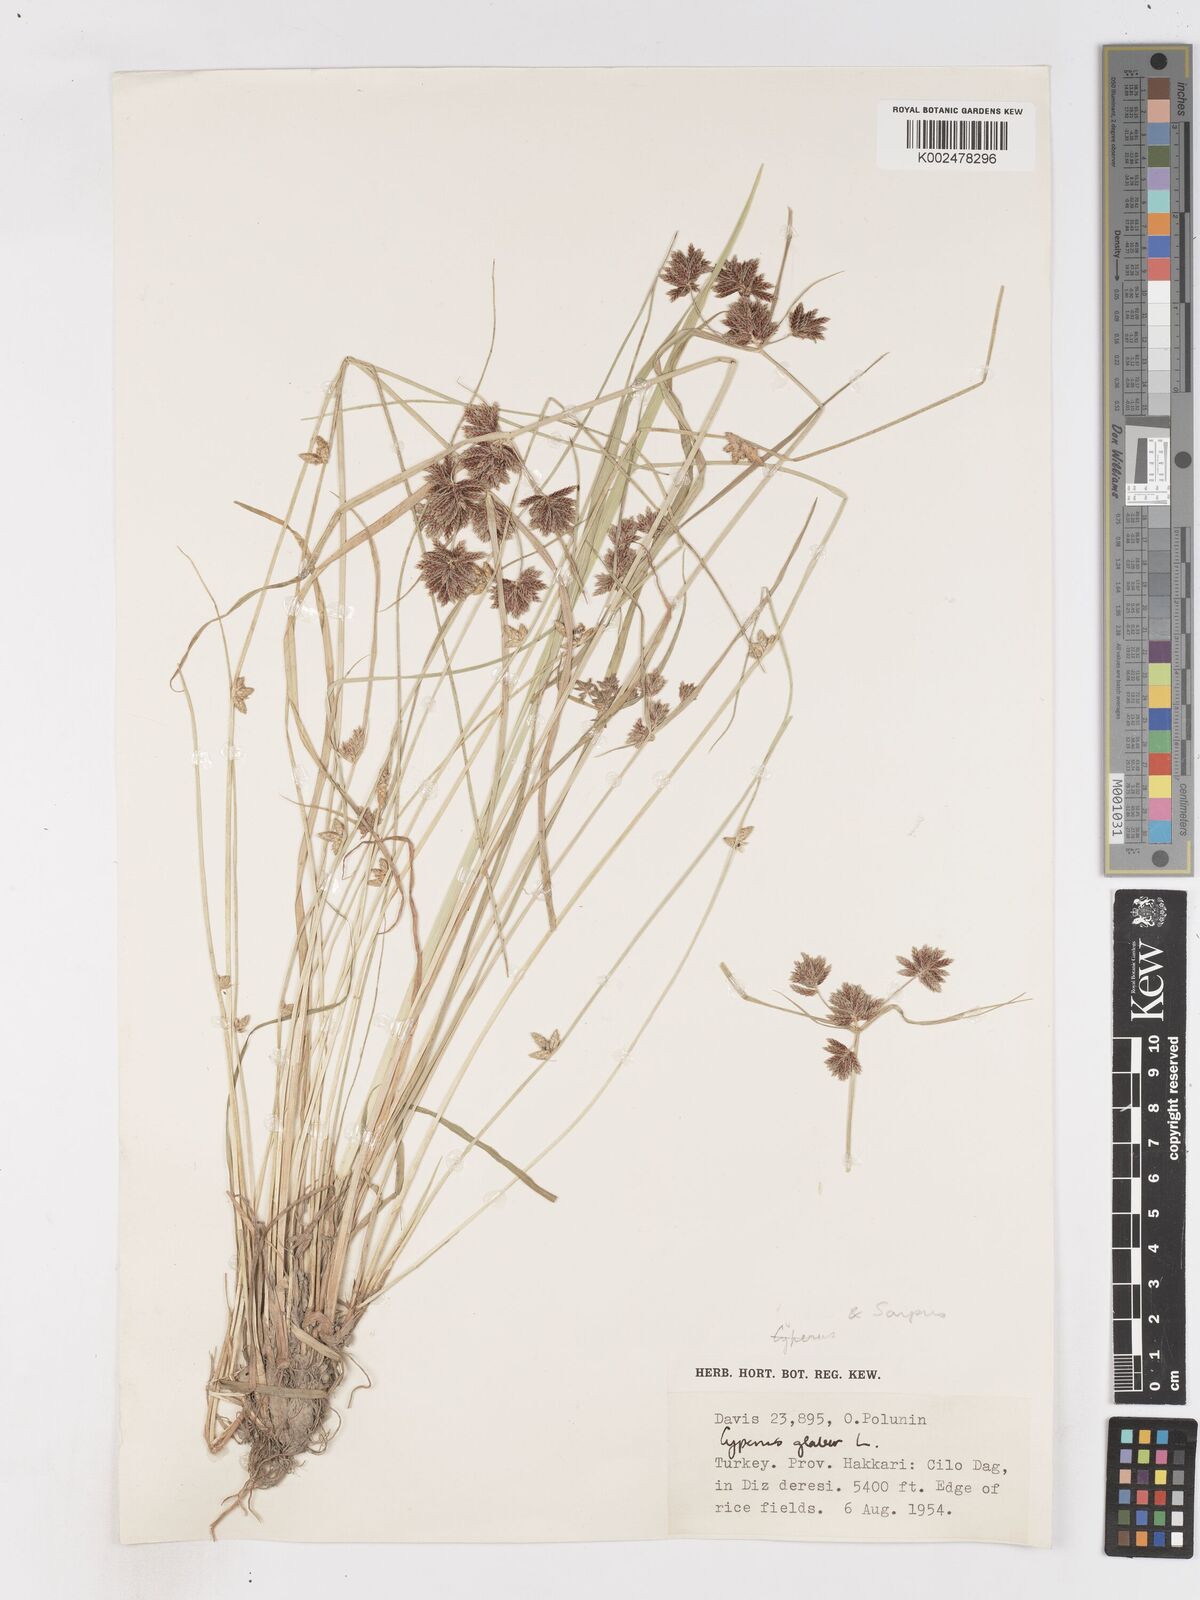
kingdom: Plantae
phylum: Tracheophyta
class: Liliopsida
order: Poales
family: Cyperaceae
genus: Cyperus
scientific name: Cyperus glaber
